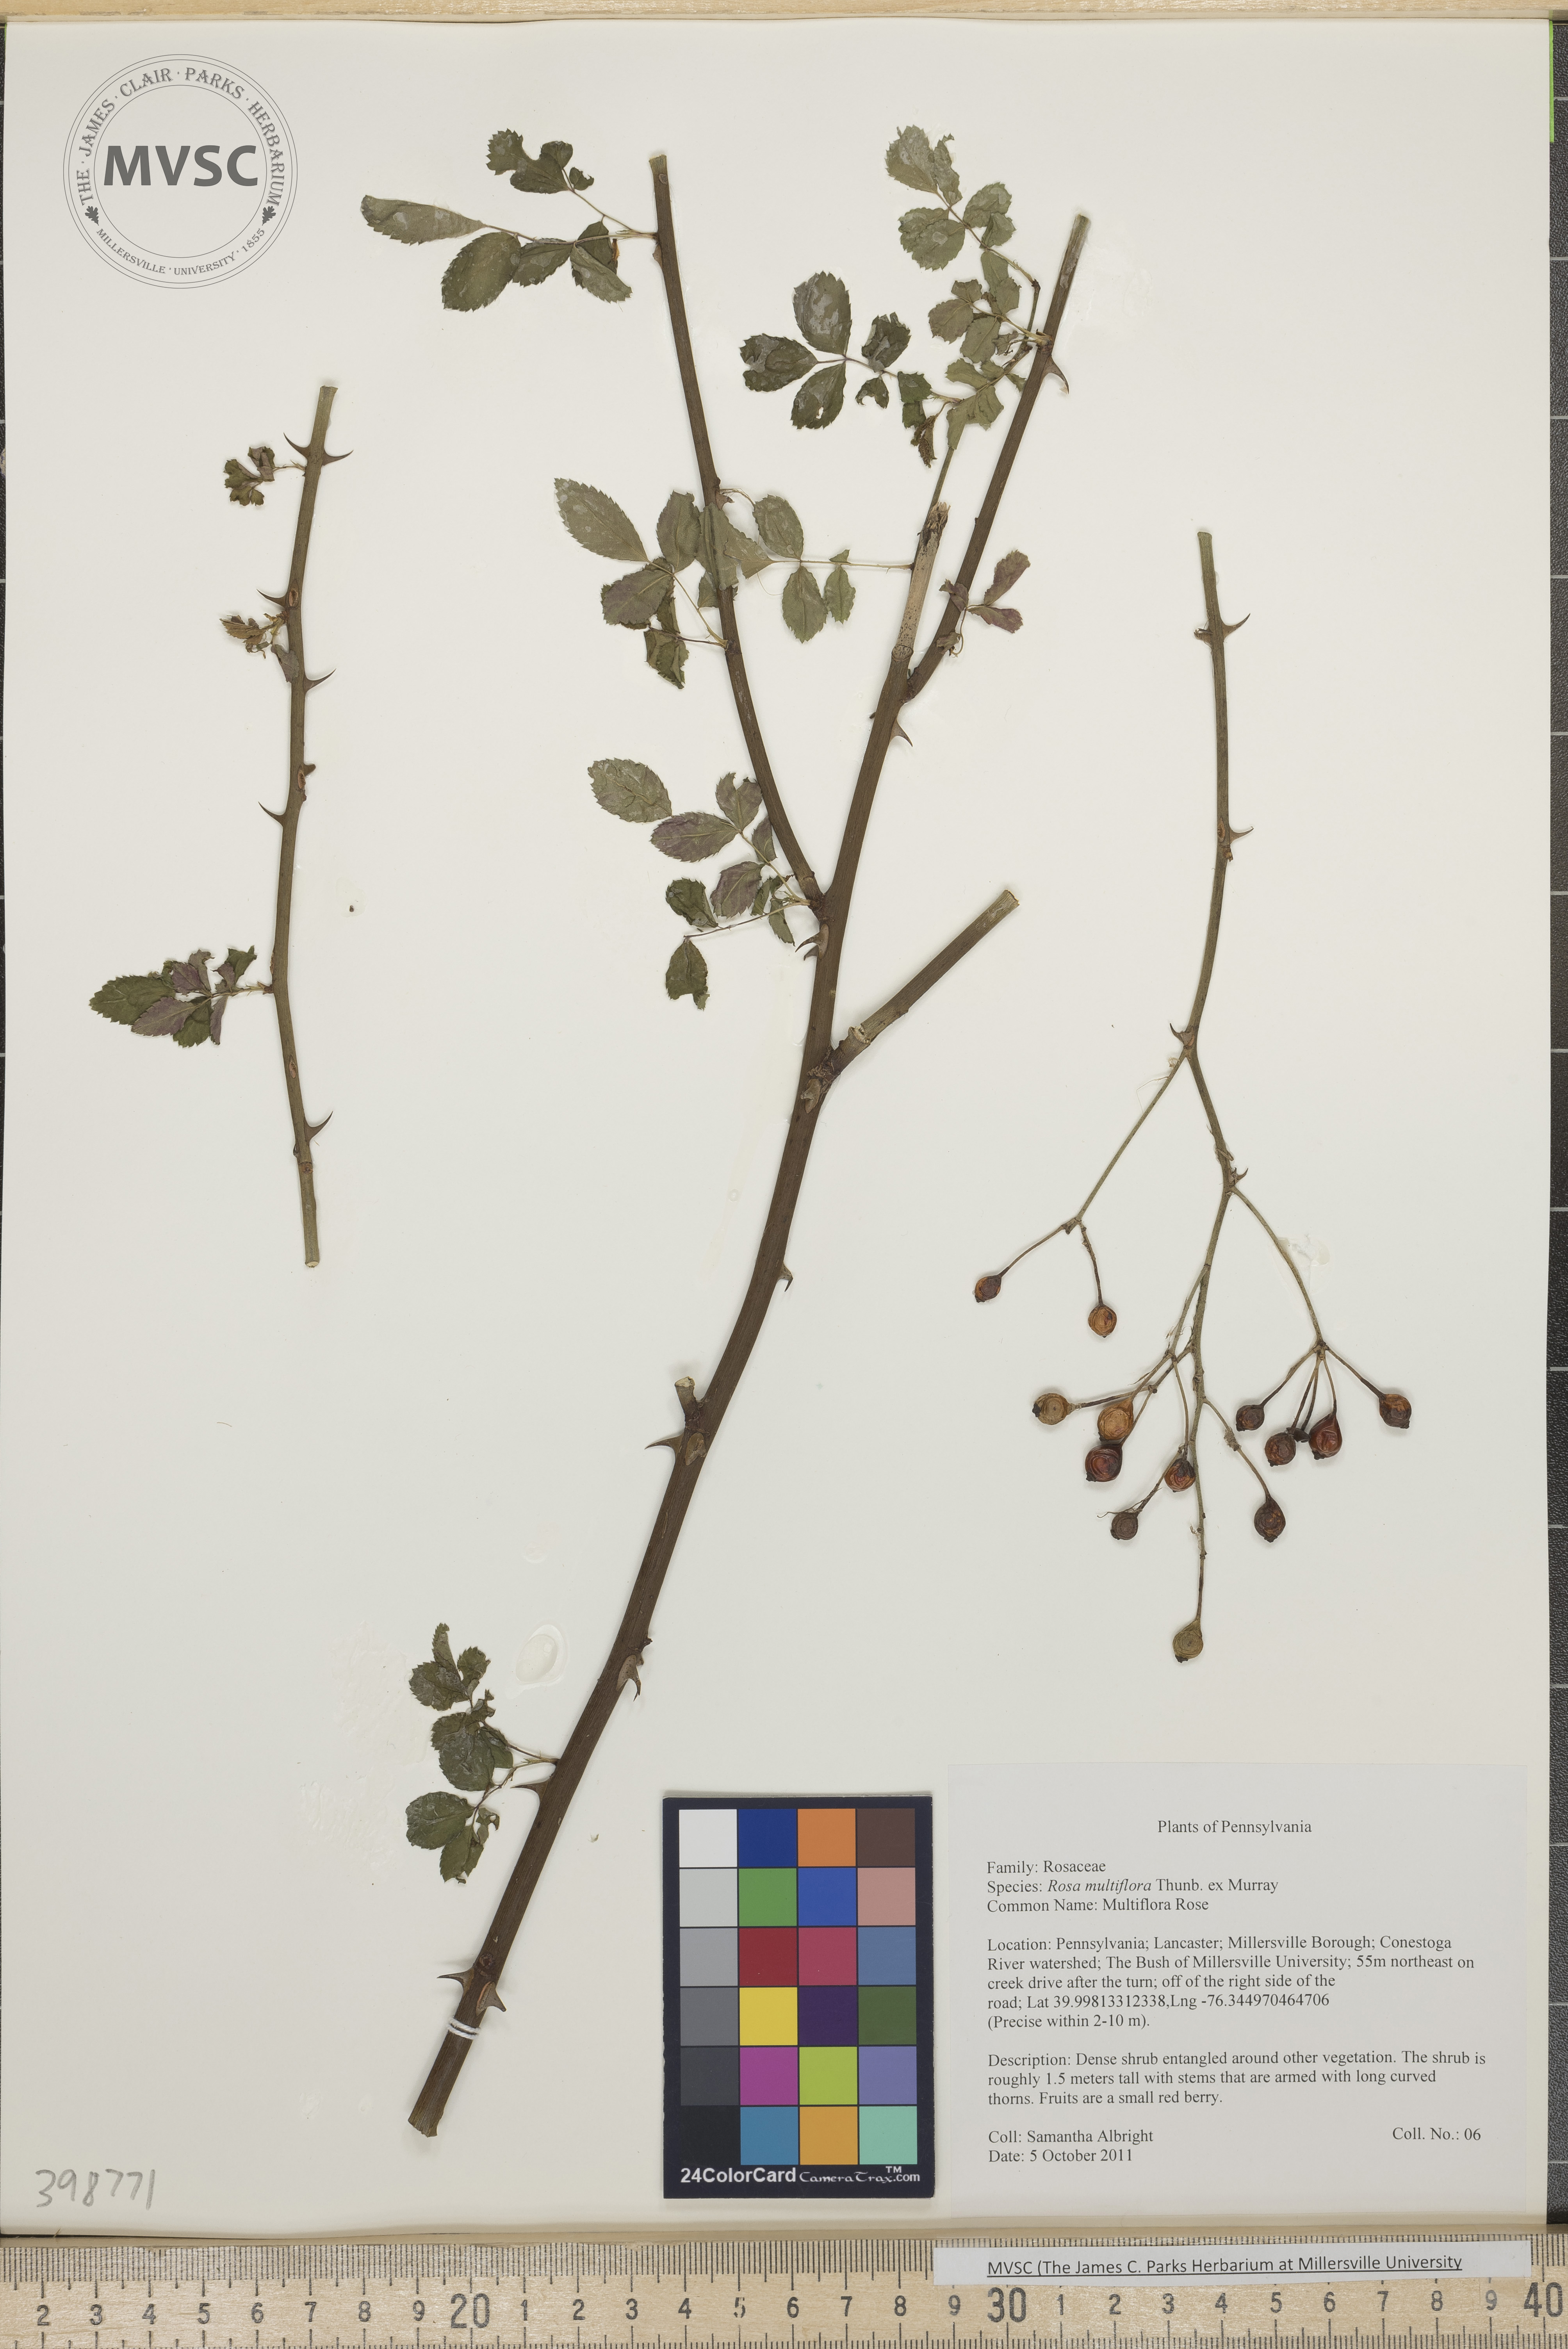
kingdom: Plantae
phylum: Tracheophyta
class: Magnoliopsida
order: Rosales
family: Rosaceae
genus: Rosa
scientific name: Rosa multiflora
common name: Multiflora rose
